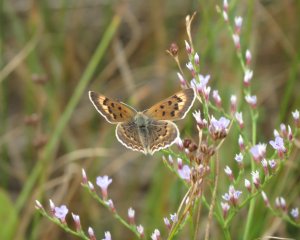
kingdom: Animalia
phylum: Arthropoda
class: Insecta
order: Lepidoptera
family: Lycaenidae
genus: Epidemia
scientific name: Epidemia dorcas
